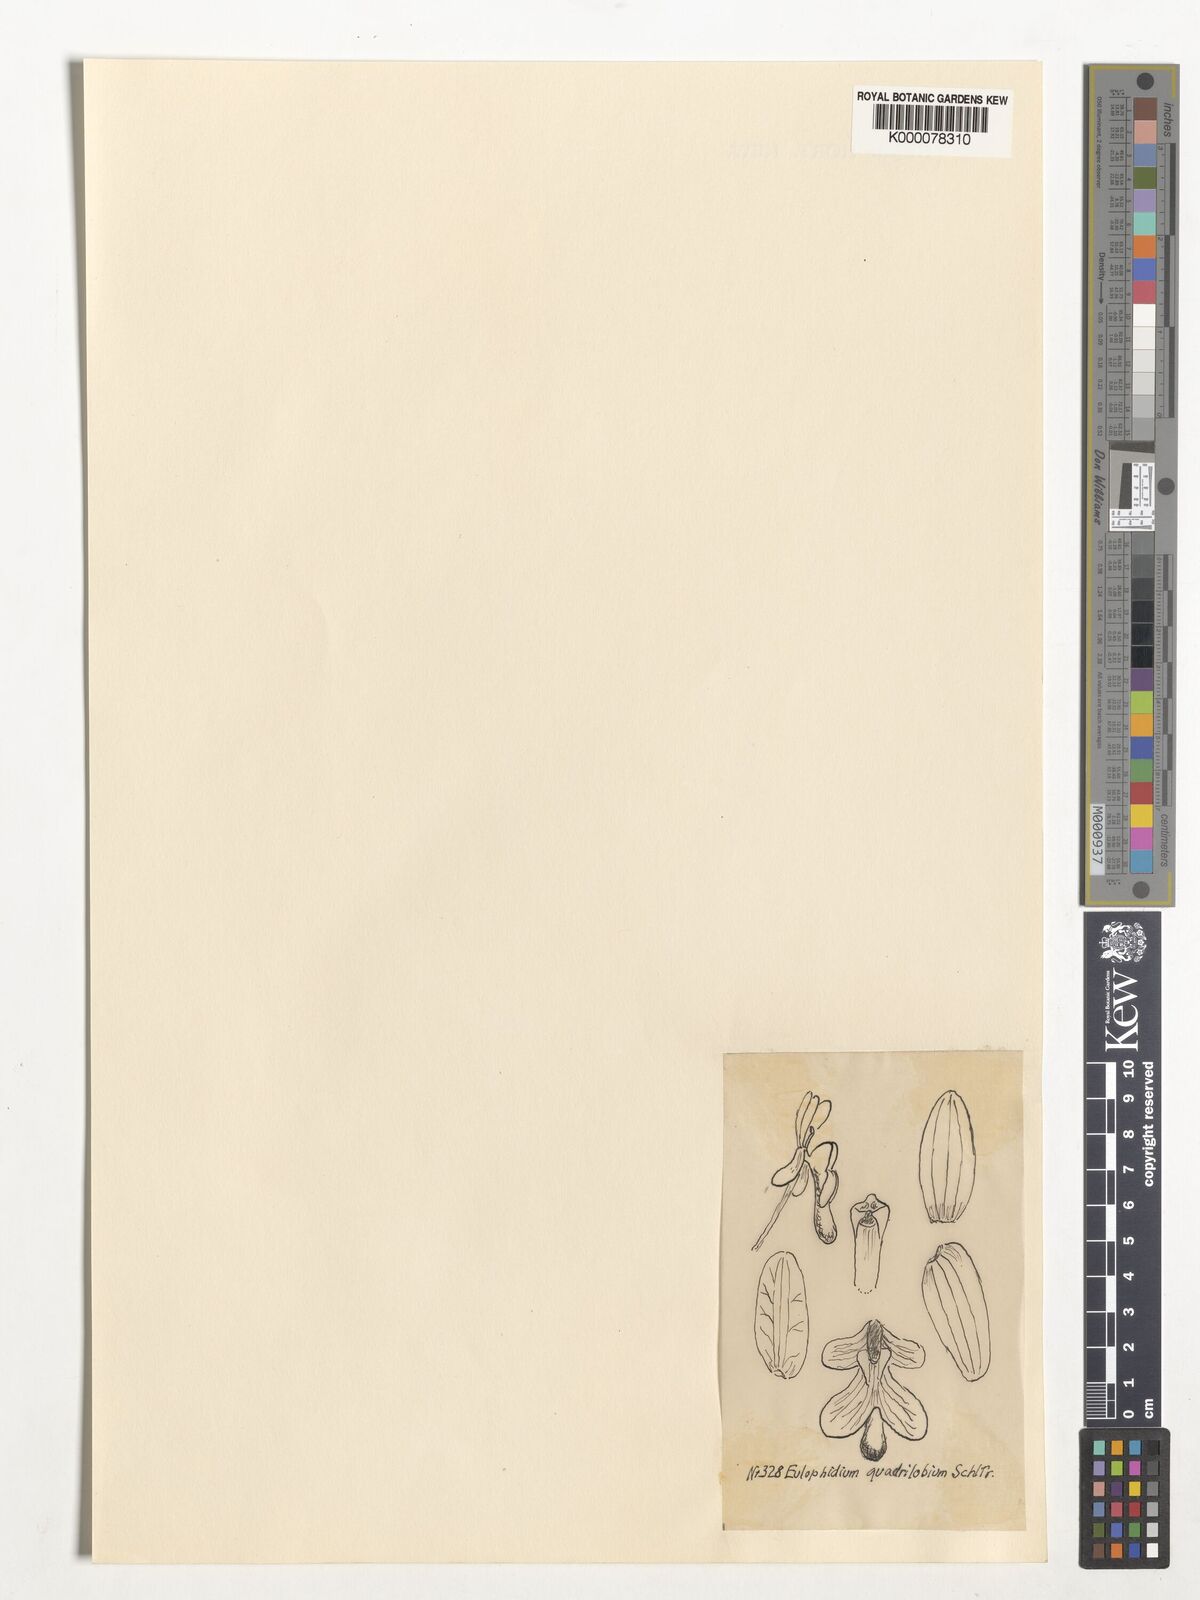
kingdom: Plantae
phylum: Tracheophyta
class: Liliopsida
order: Asparagales
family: Orchidaceae
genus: Eulophia
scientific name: Eulophia quadriloba
